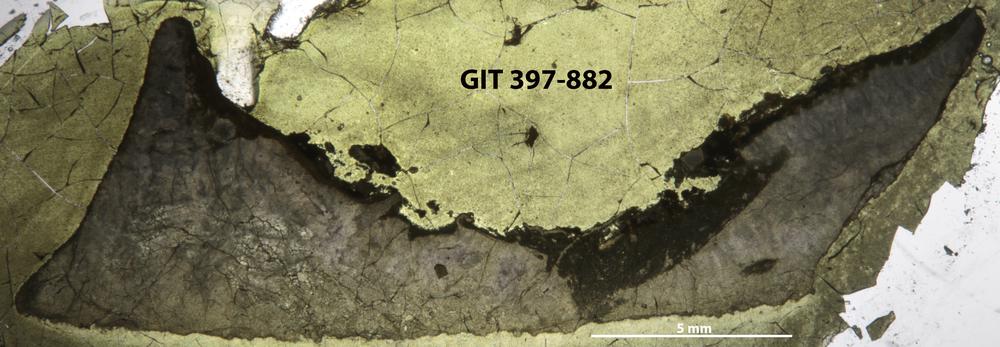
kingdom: Animalia
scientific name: Animalia
